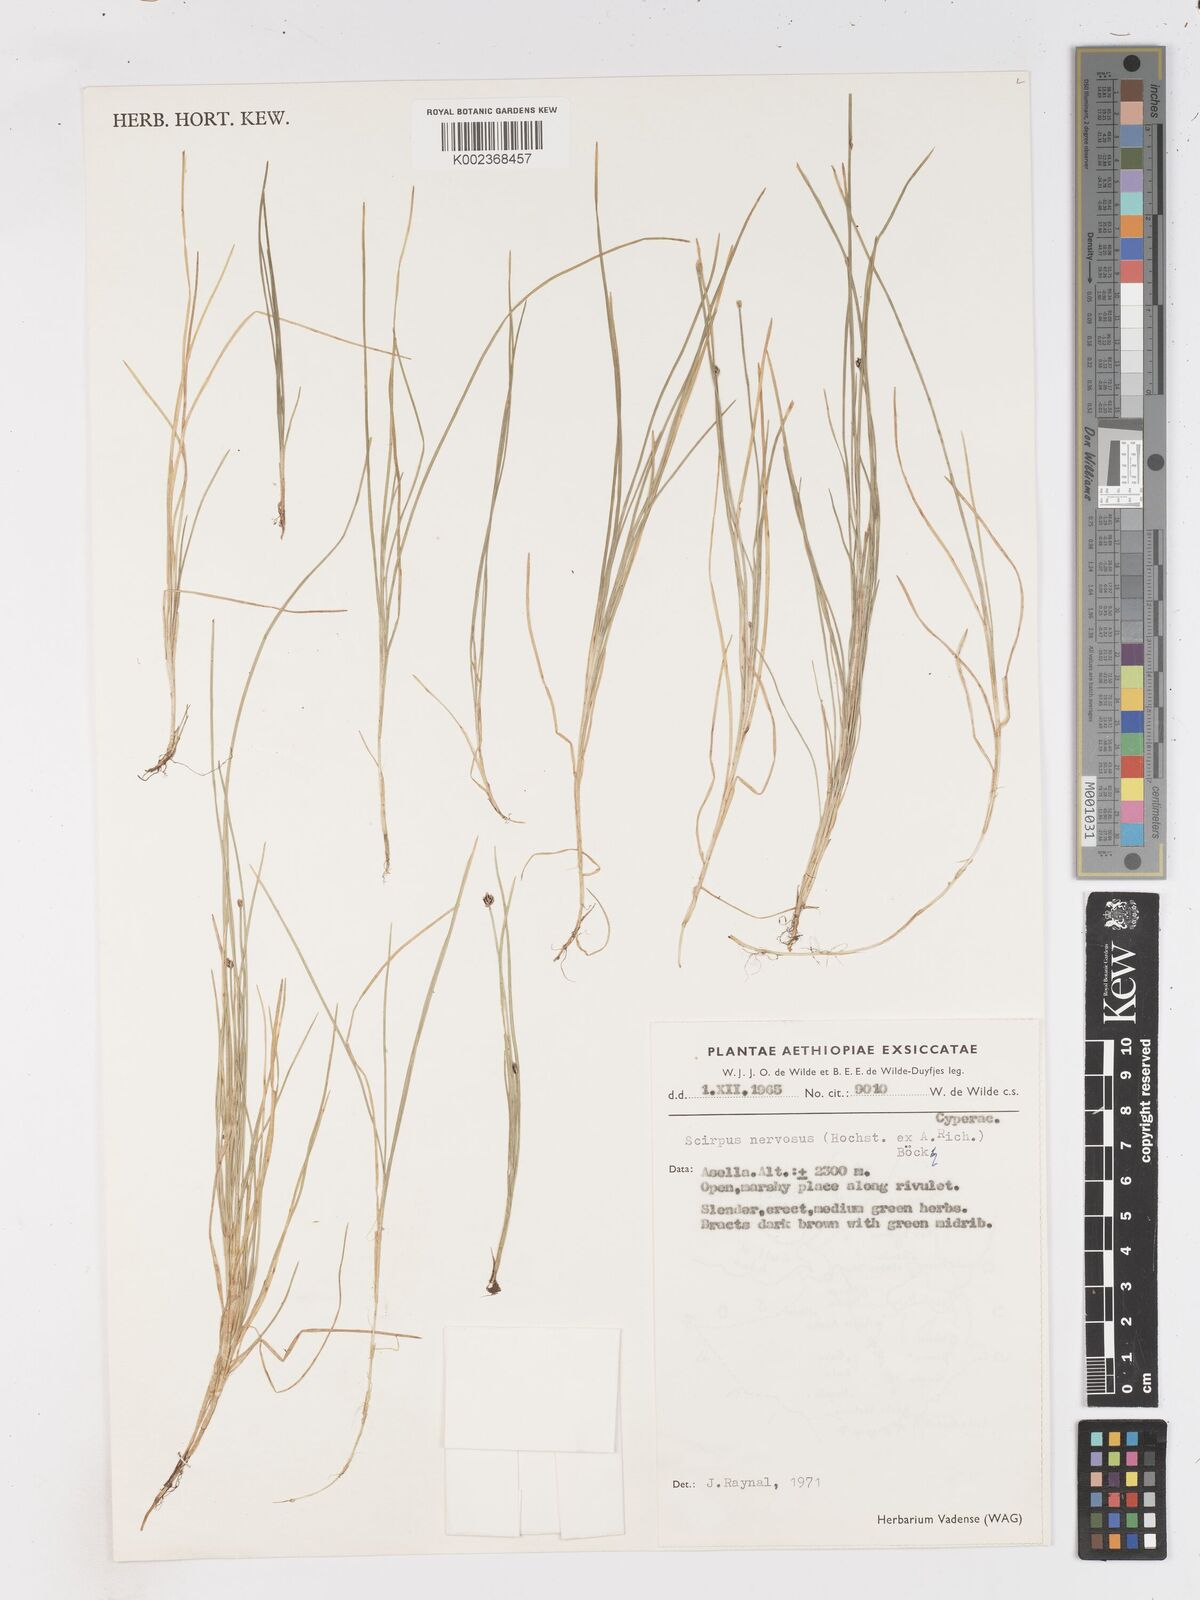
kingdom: Plantae
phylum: Tracheophyta
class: Liliopsida
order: Poales
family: Cyperaceae
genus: Isolepis
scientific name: Isolepis fluitans
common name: Floating club-rush
